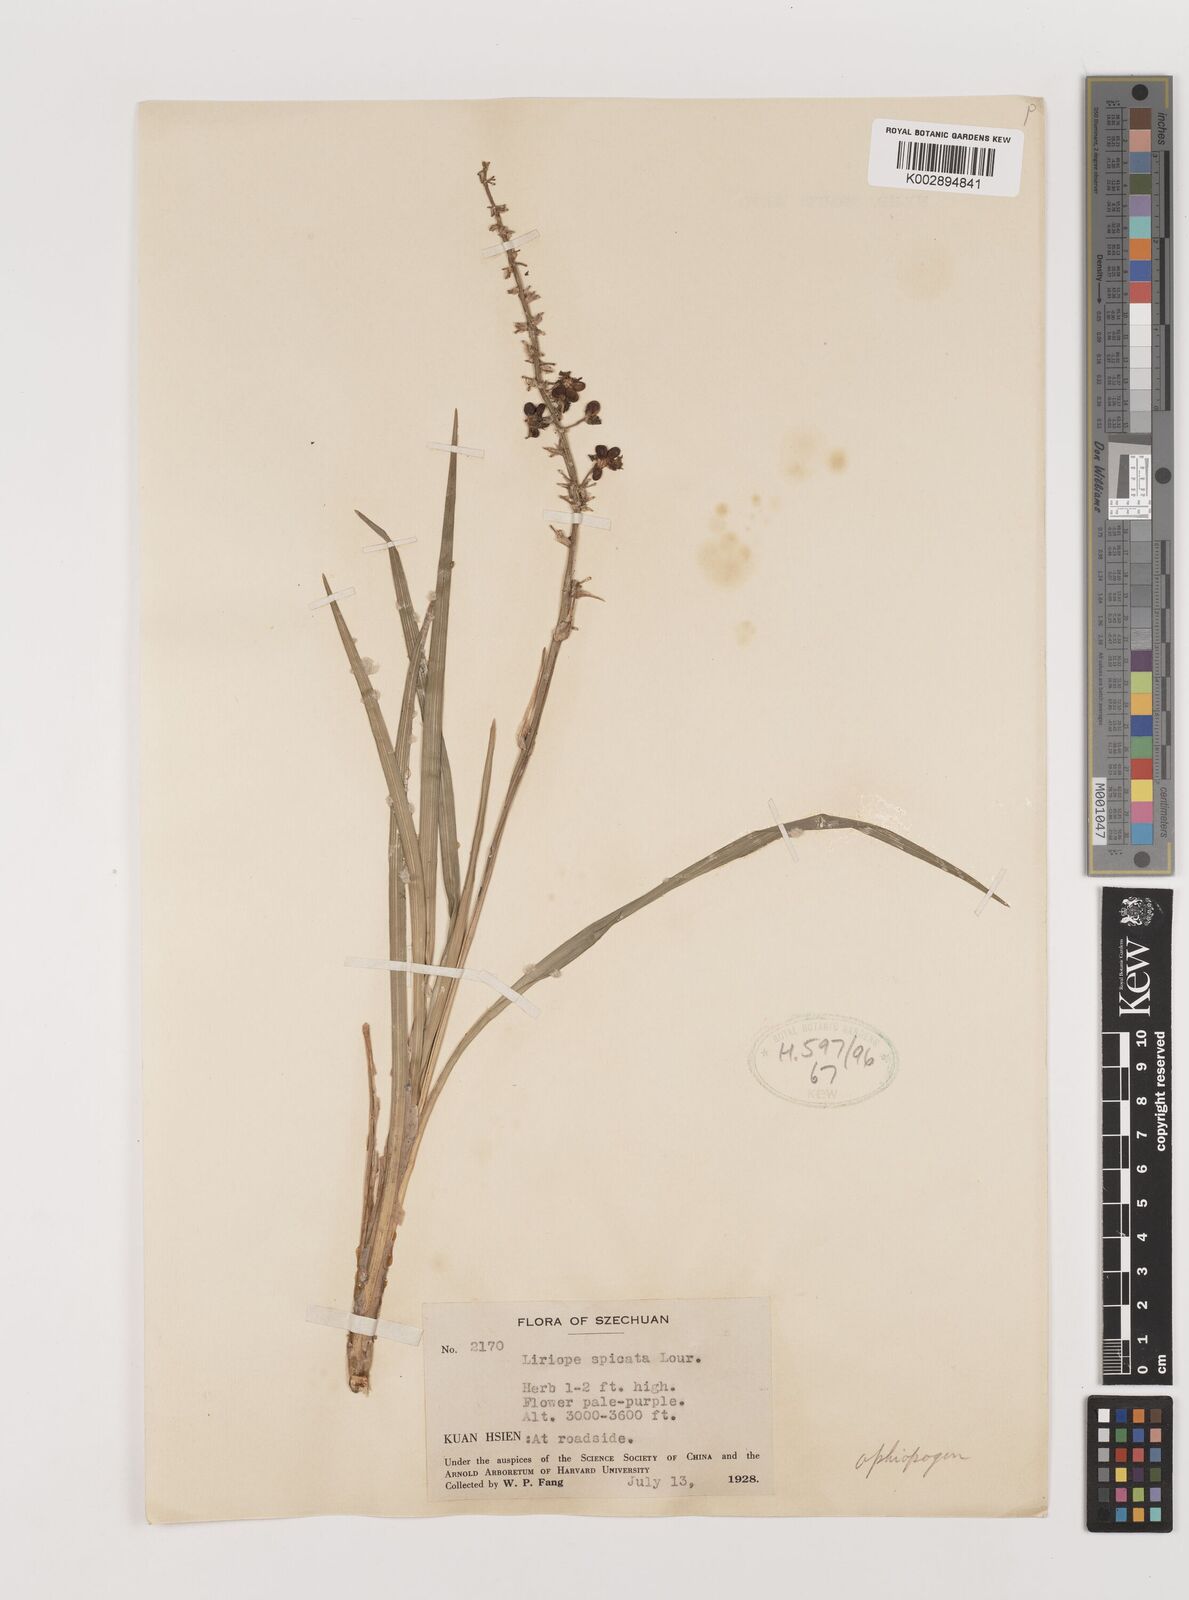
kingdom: Plantae
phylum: Tracheophyta
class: Liliopsida
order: Asparagales
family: Asparagaceae
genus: Ophiopogon
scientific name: Ophiopogon
